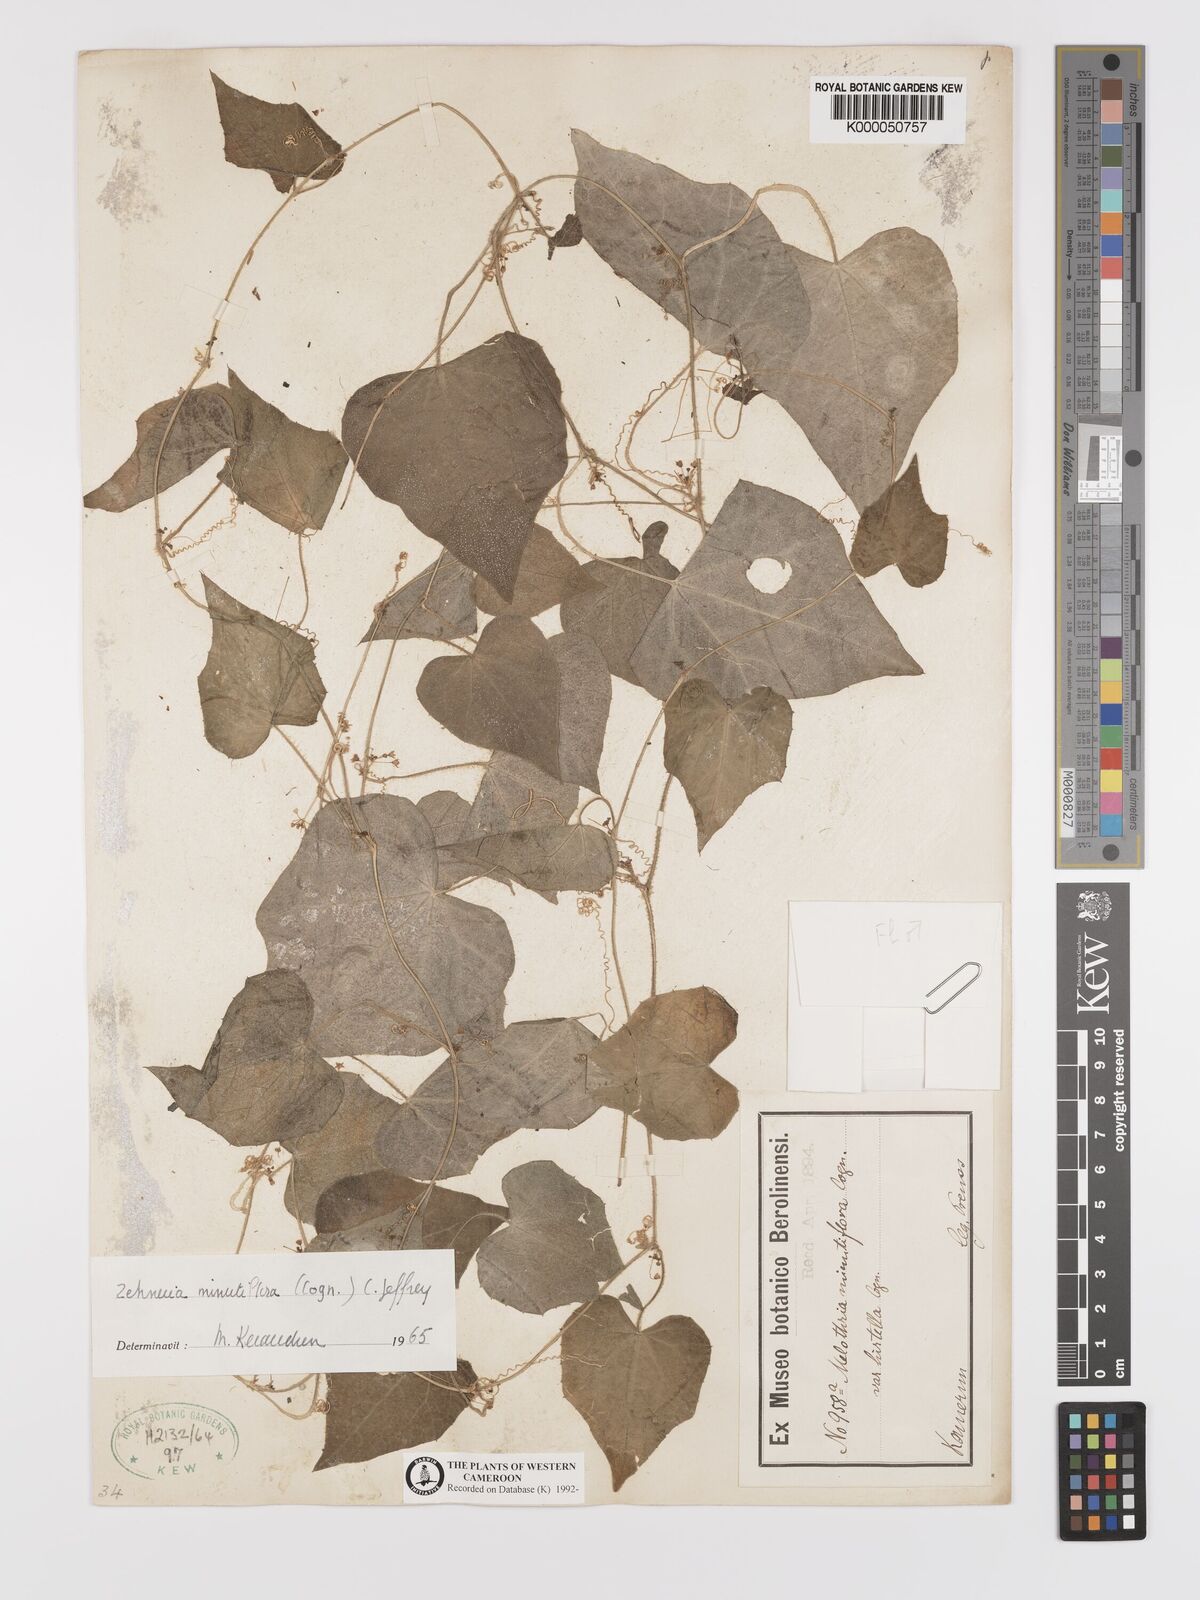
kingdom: Plantae
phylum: Tracheophyta
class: Magnoliopsida
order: Cucurbitales
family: Cucurbitaceae
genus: Zehneria
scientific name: Zehneria minutiflora
